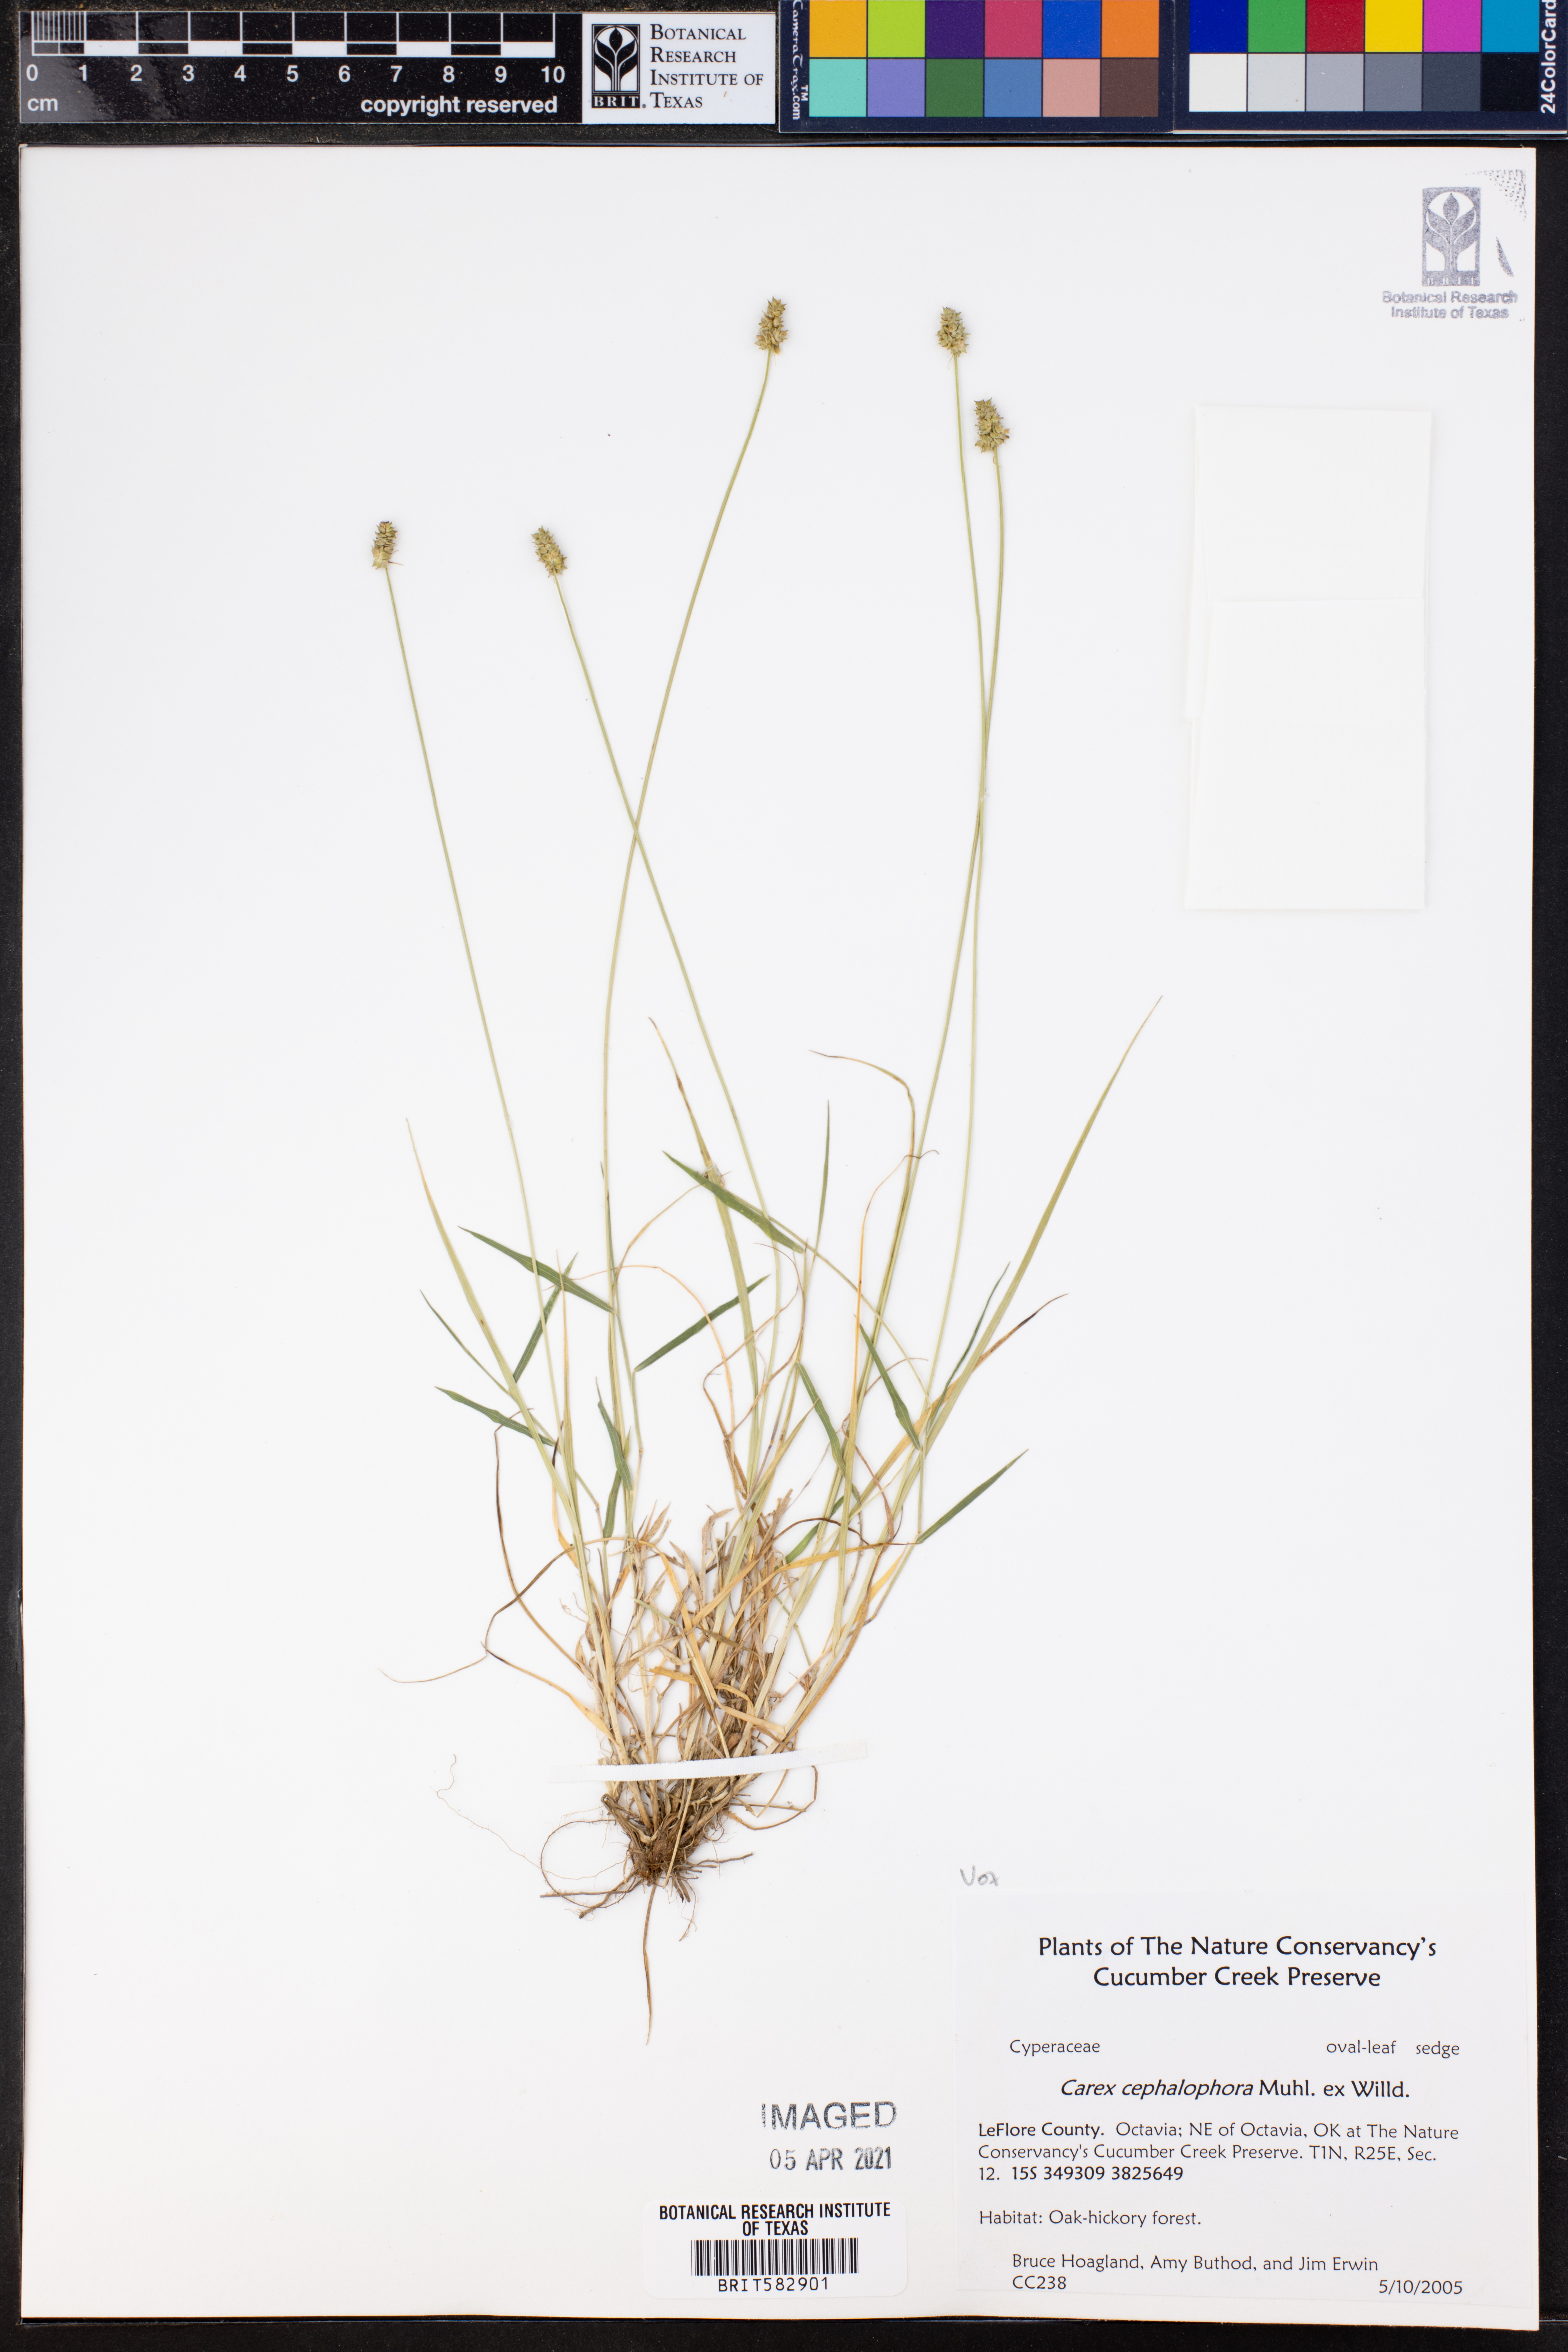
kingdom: Plantae
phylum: Tracheophyta
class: Liliopsida
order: Poales
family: Cyperaceae
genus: Carex
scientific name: Carex cephalophora
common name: Oval-headed sedge
